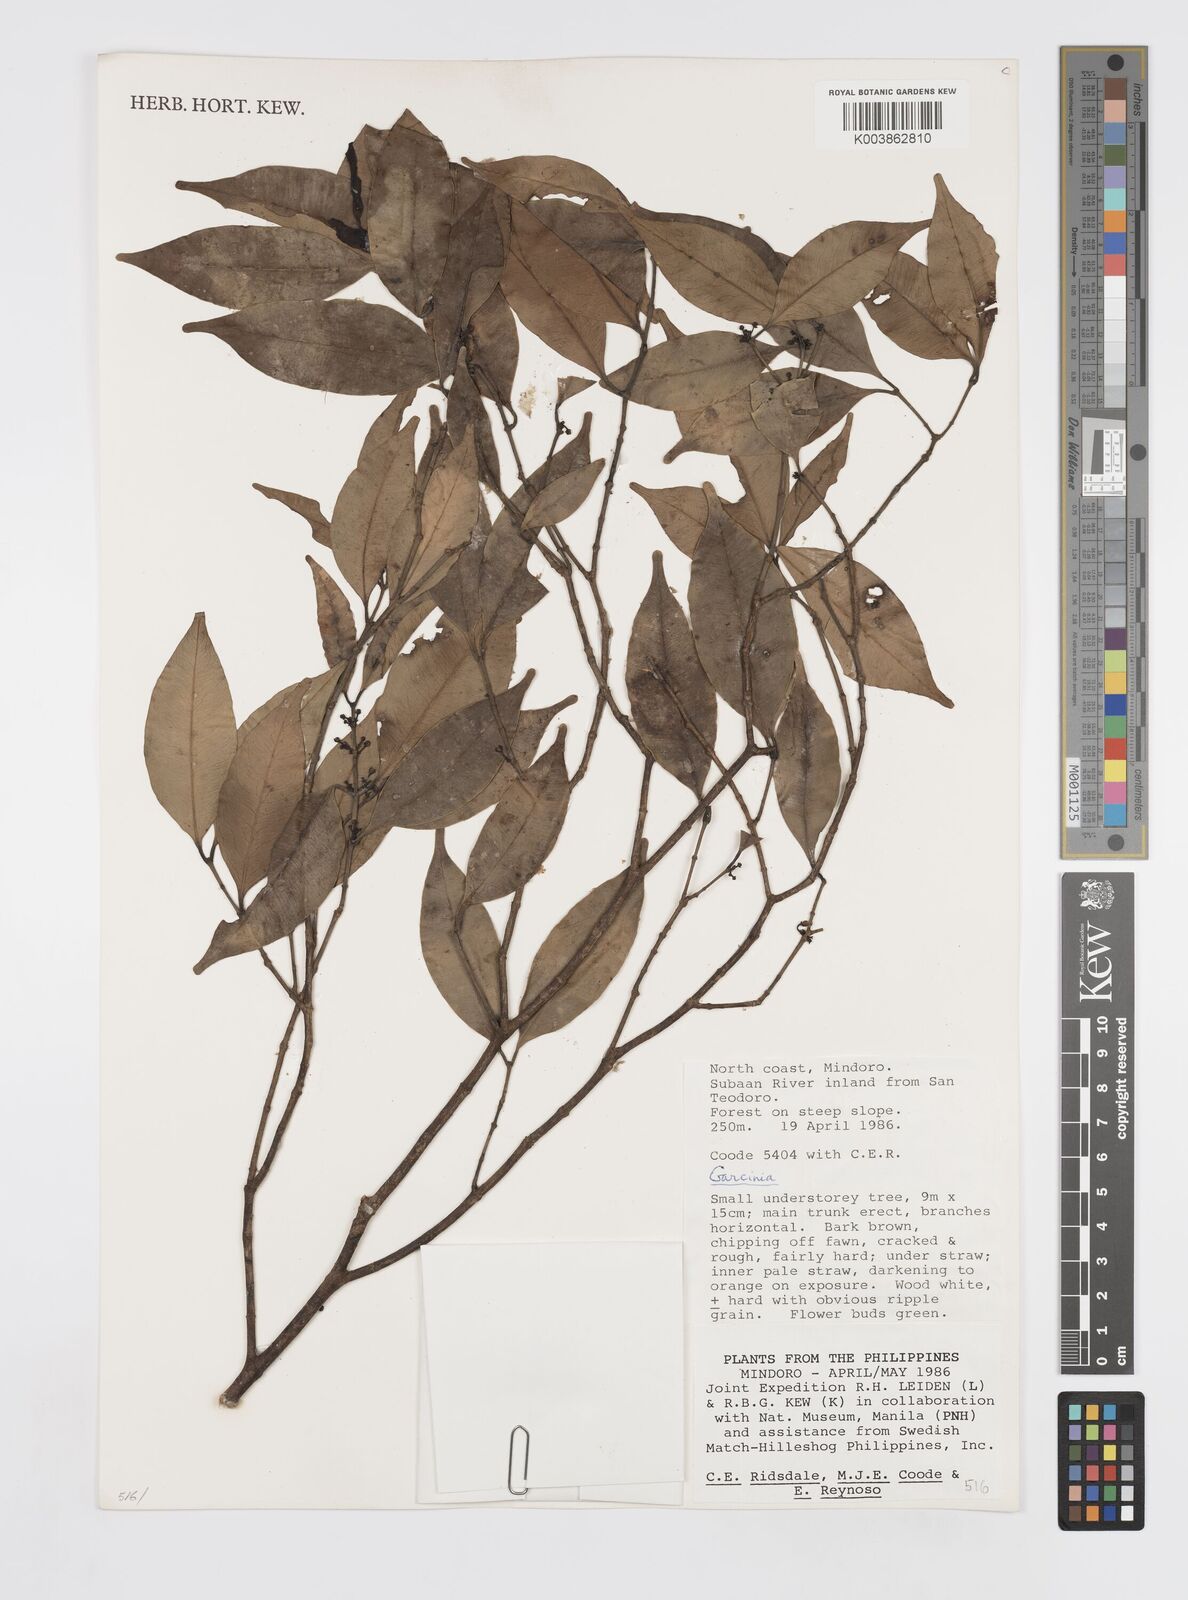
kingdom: Plantae
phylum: Tracheophyta
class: Magnoliopsida
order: Malpighiales
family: Clusiaceae
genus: Garcinia
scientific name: Garcinia
